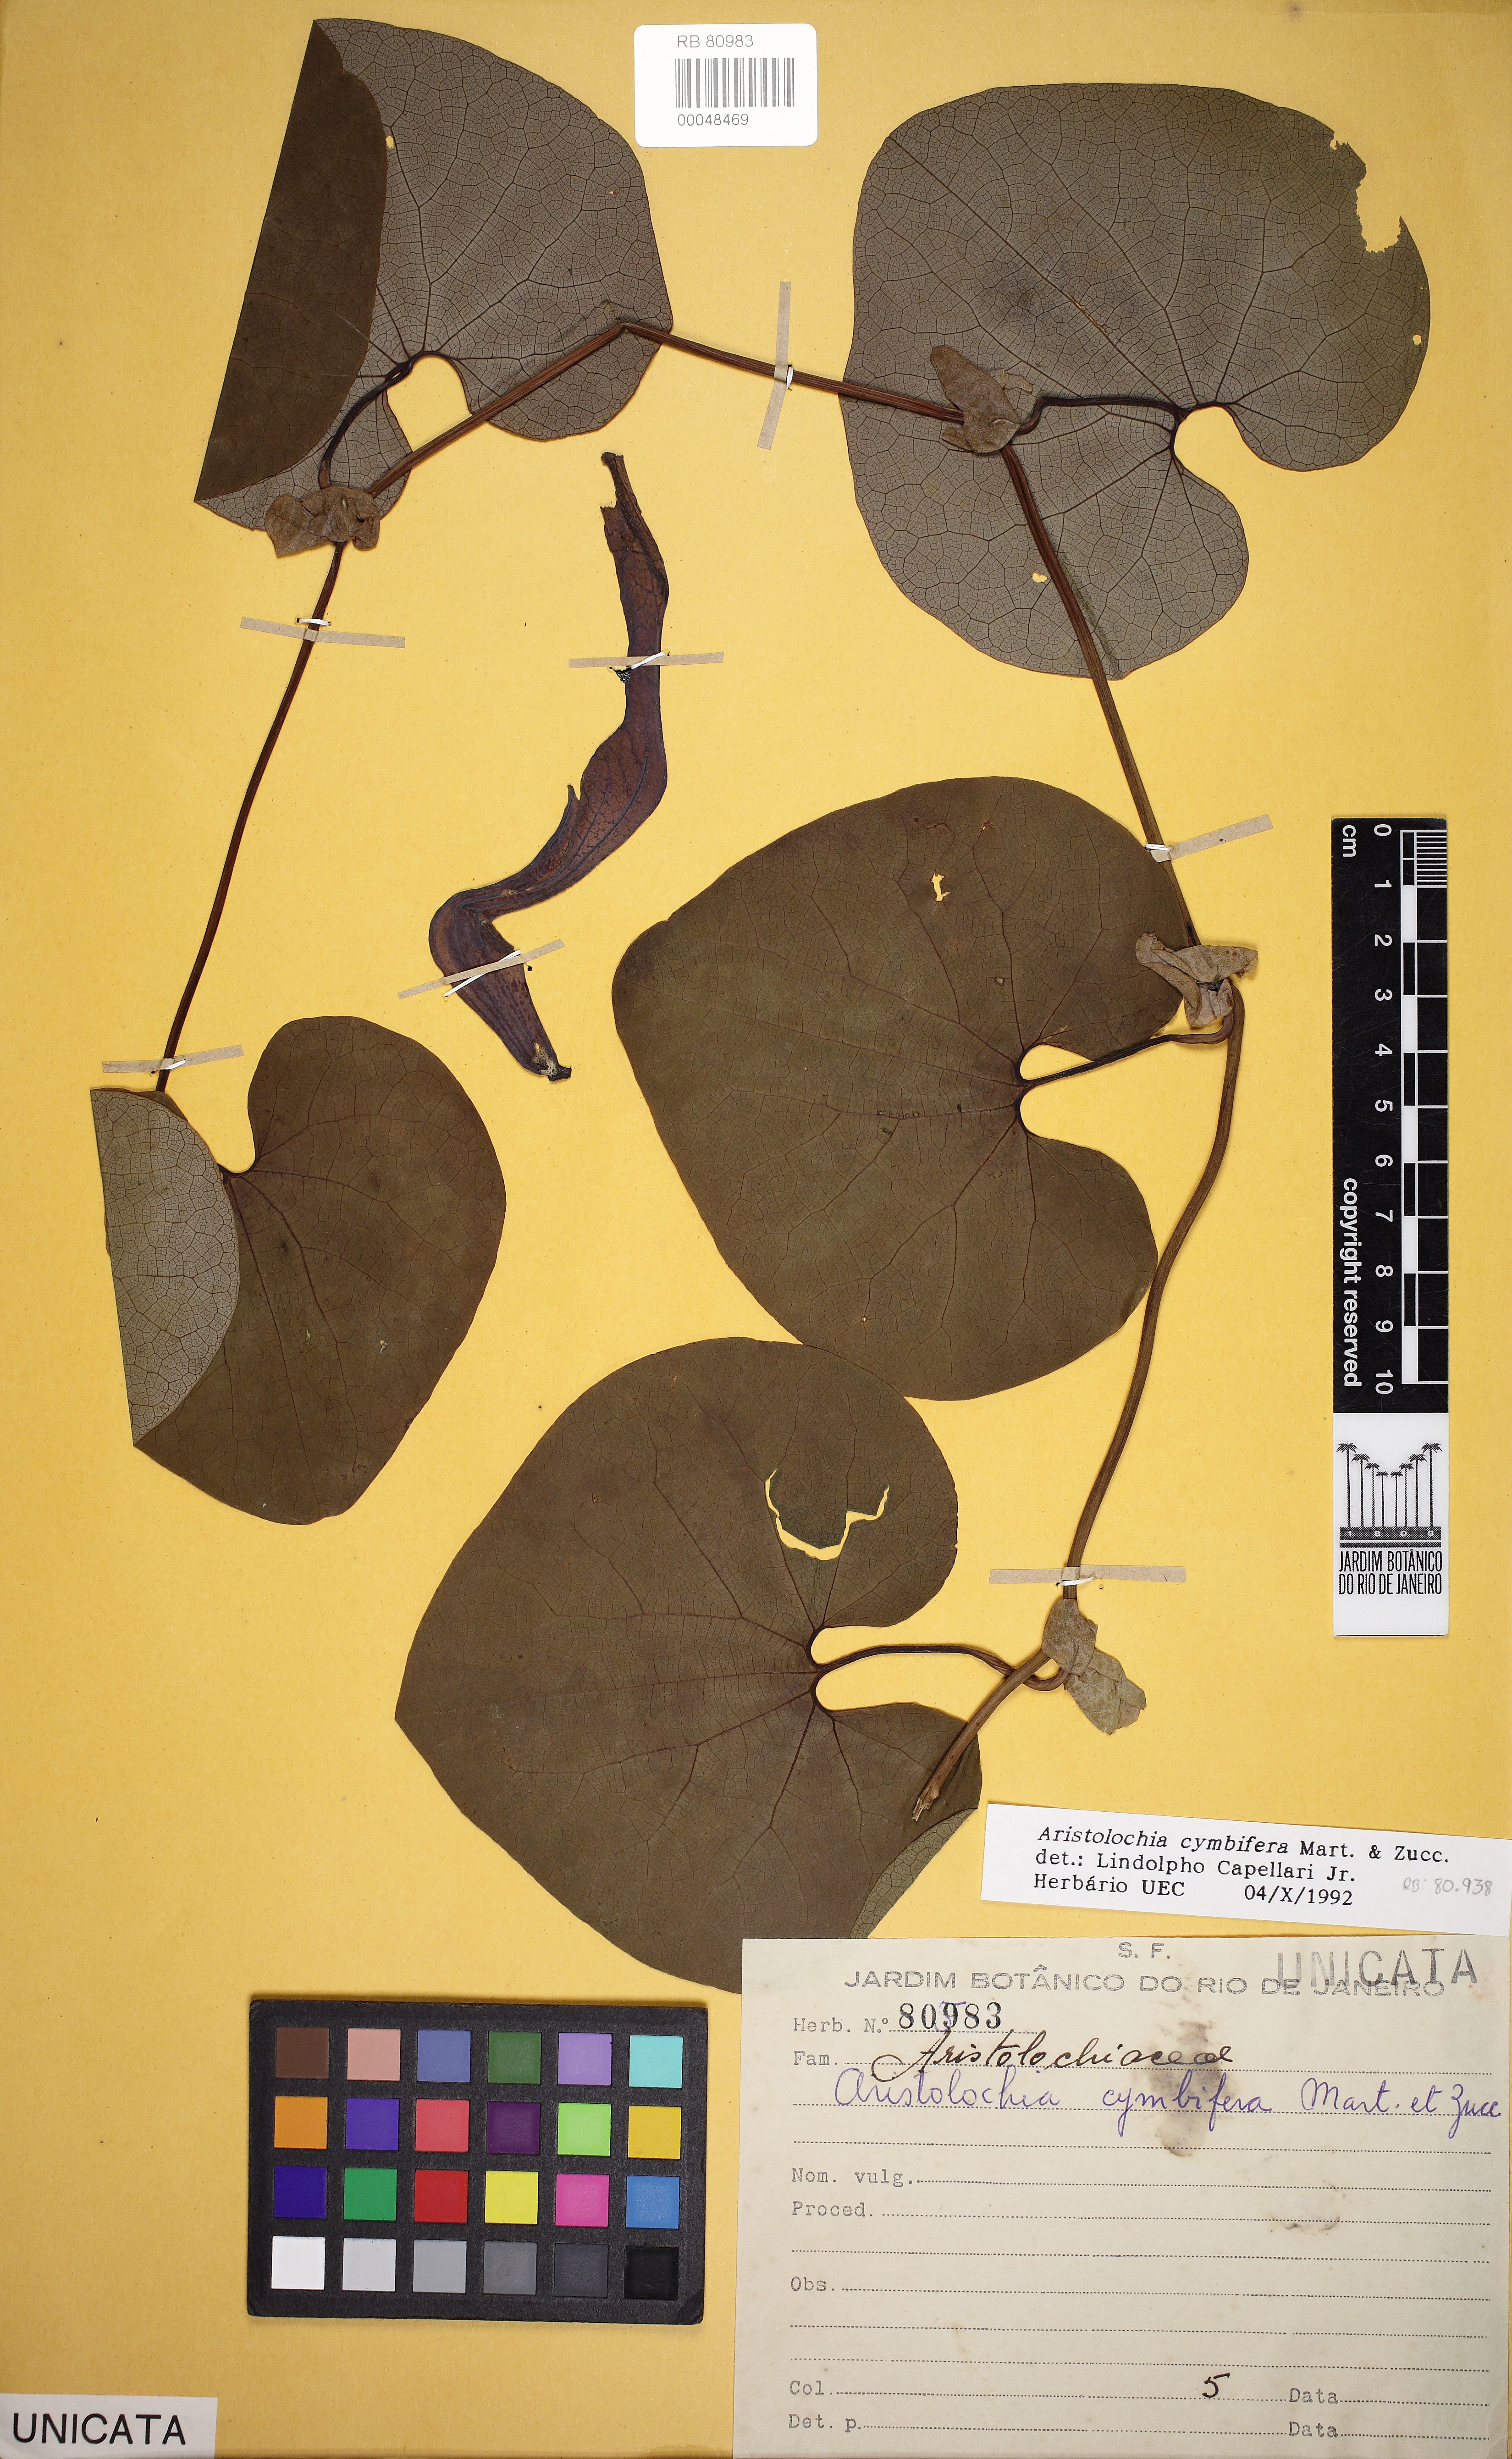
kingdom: Plantae
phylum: Tracheophyta
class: Magnoliopsida
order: Piperales
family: Aristolochiaceae
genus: Aristolochia
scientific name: Aristolochia cymbifera
